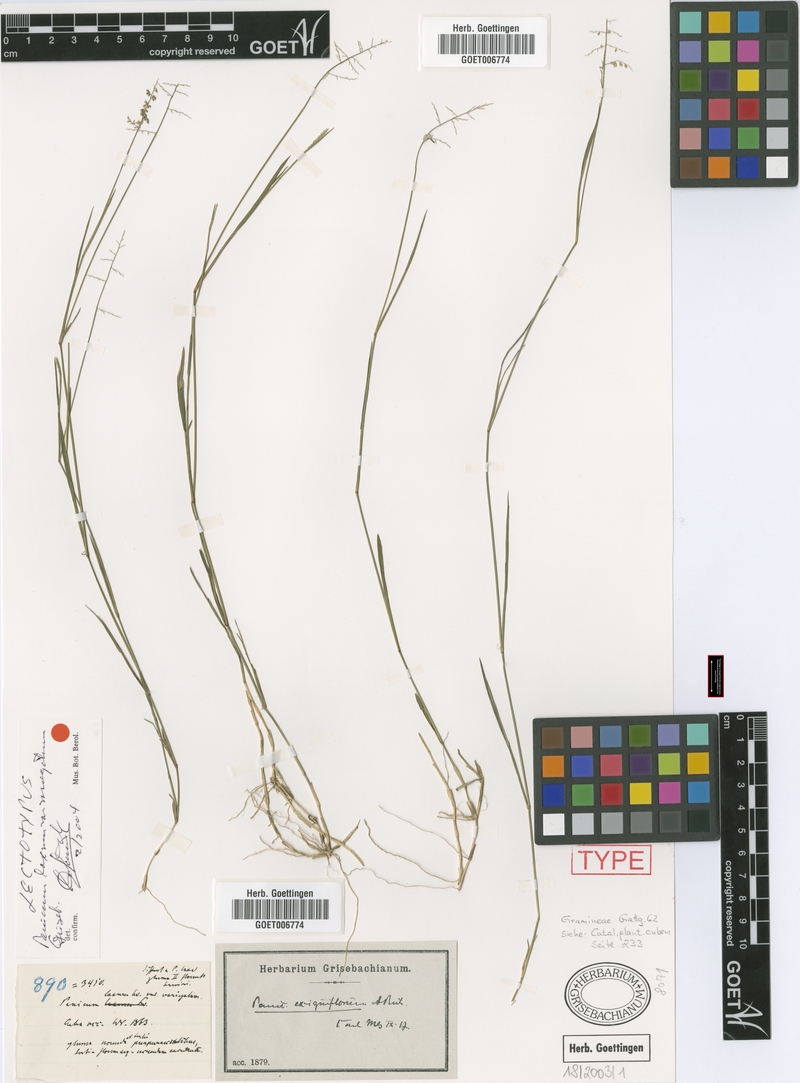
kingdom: Plantae
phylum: Tracheophyta
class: Liliopsida
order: Poales
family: Poaceae
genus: Steinchisma
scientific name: Steinchisma exiguiflorum
